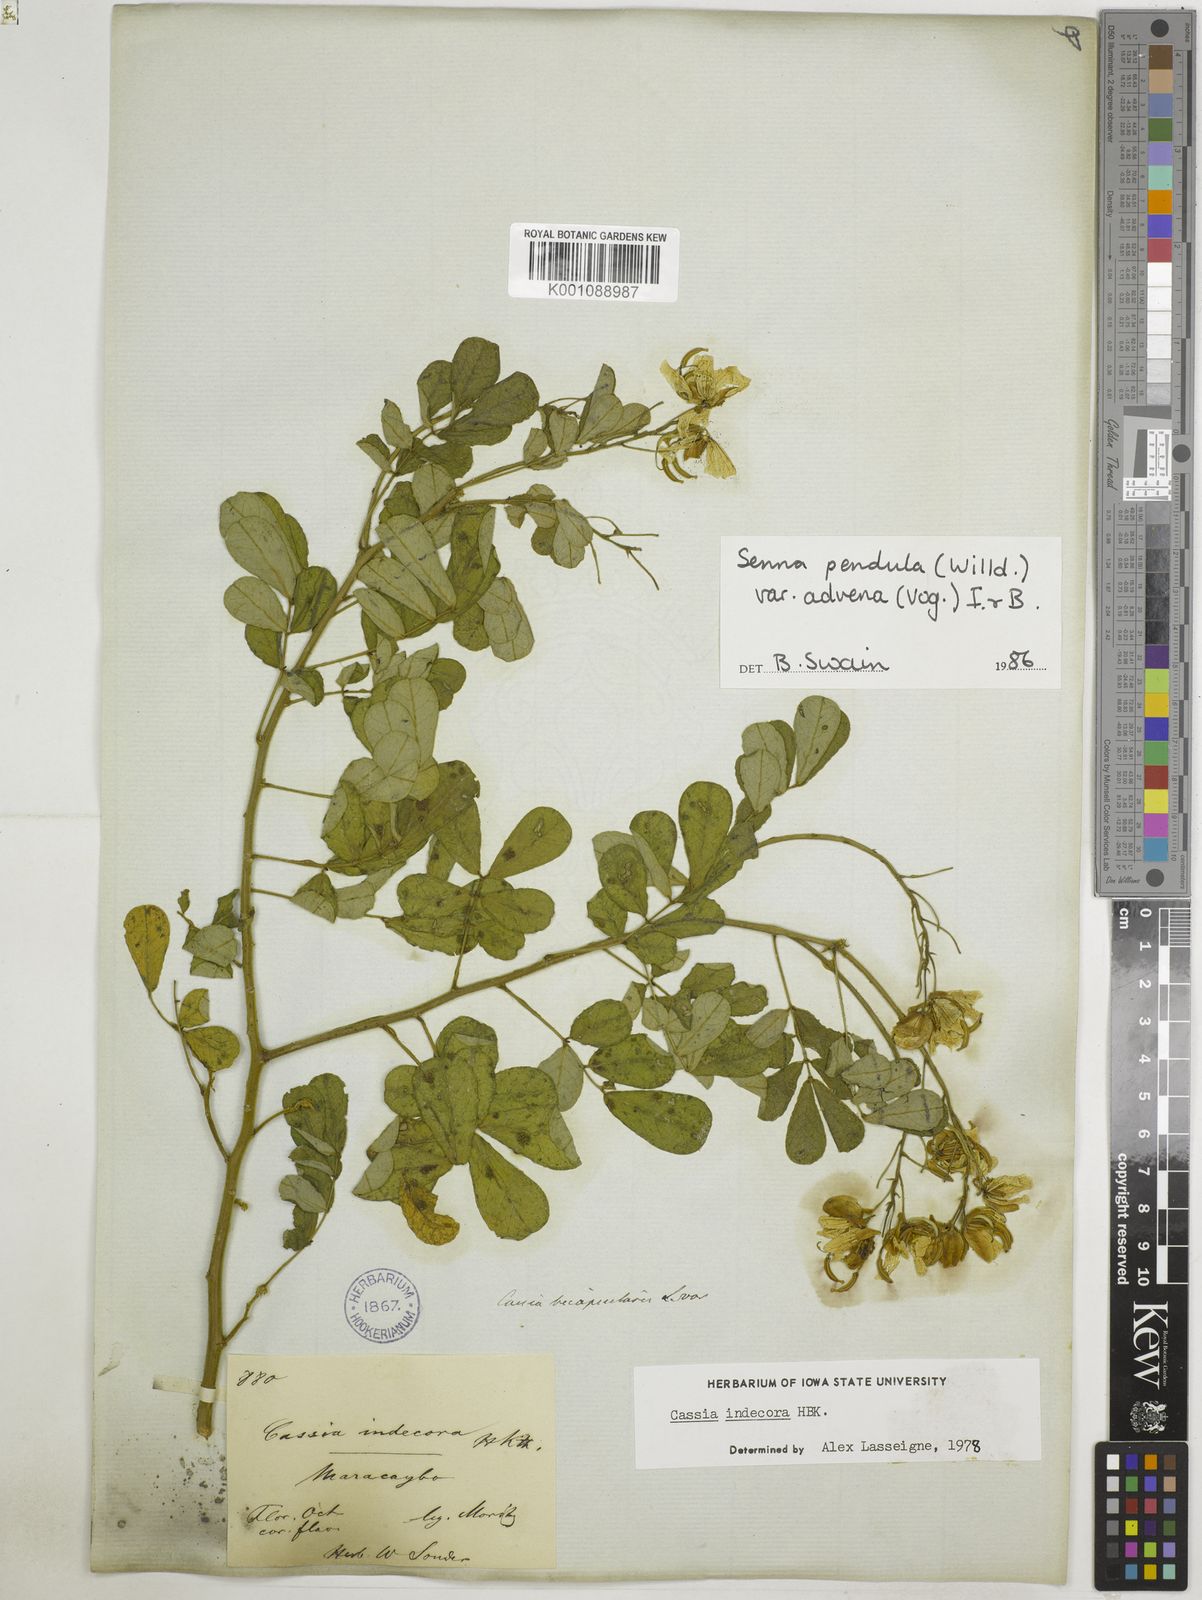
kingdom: Plantae
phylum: Tracheophyta
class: Magnoliopsida
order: Fabales
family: Fabaceae
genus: Senna
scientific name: Senna pendula
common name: Easter cassia
